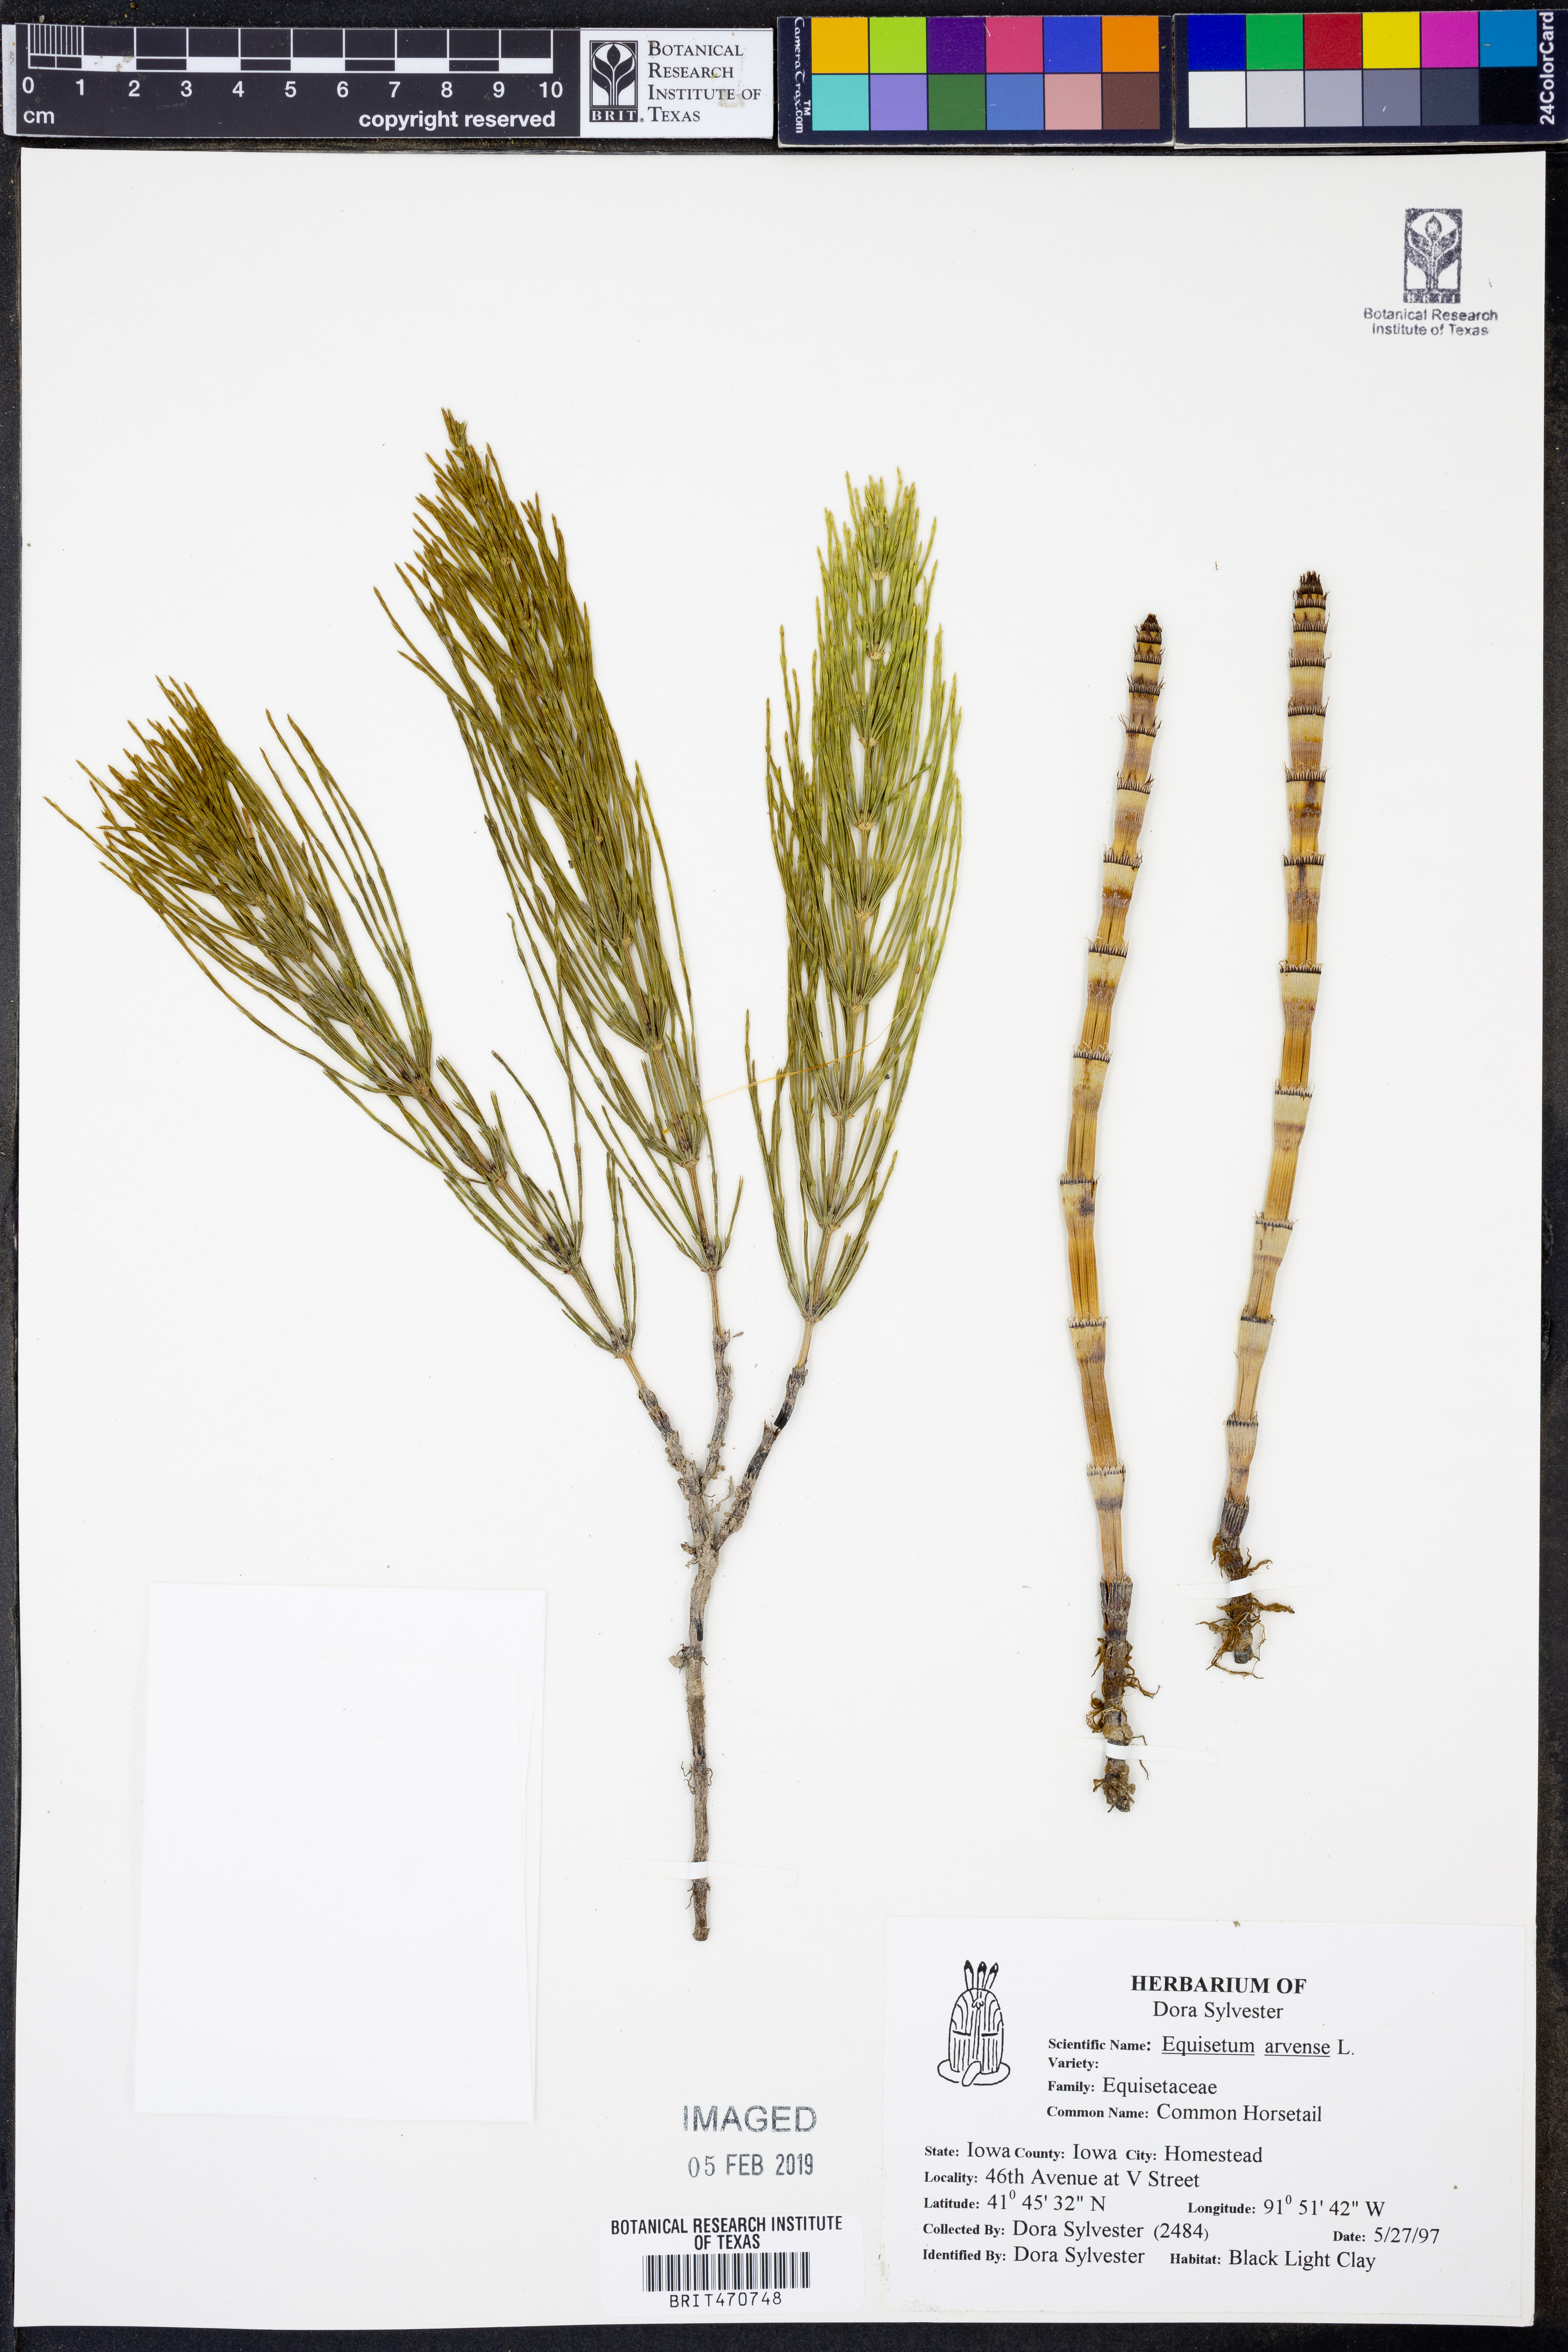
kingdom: Plantae
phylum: Tracheophyta
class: Polypodiopsida
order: Equisetales
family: Equisetaceae
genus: Equisetum
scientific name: Equisetum arvense
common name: Field horsetail
